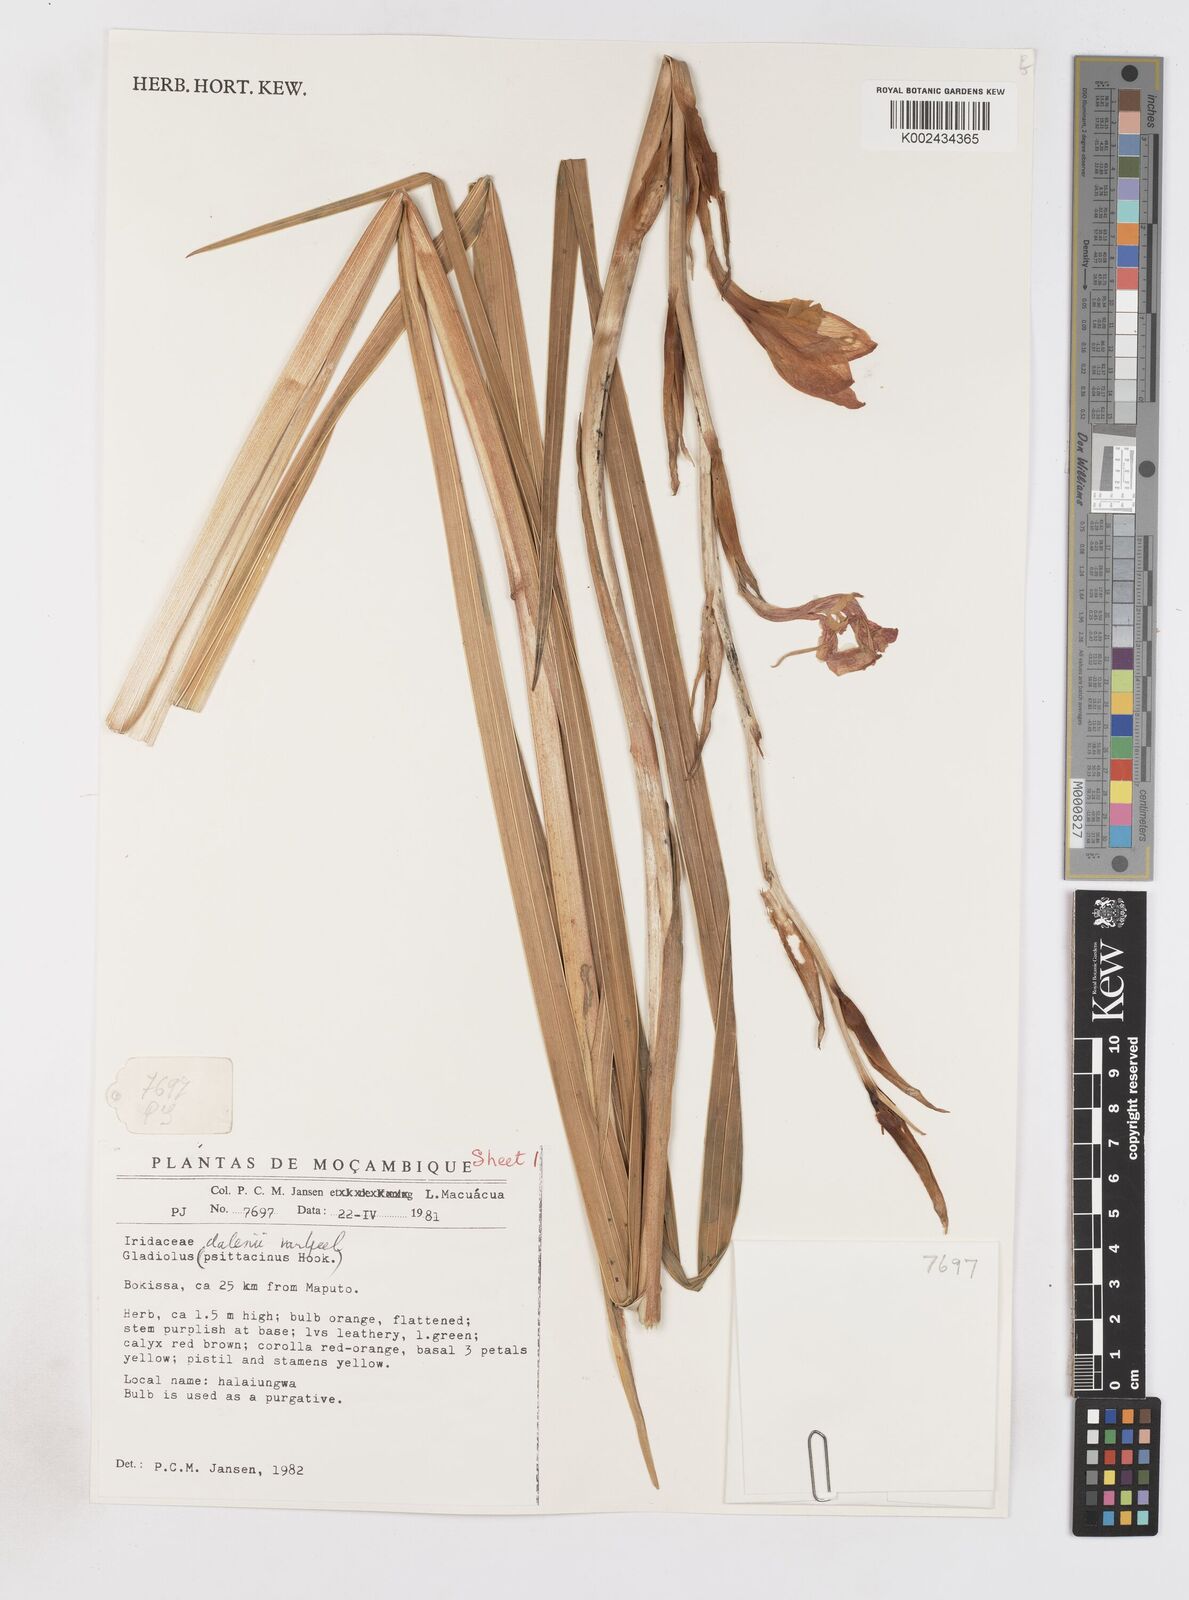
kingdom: Plantae
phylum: Tracheophyta
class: Liliopsida
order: Asparagales
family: Iridaceae
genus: Gladiolus
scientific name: Gladiolus dalenii
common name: Cornflag
